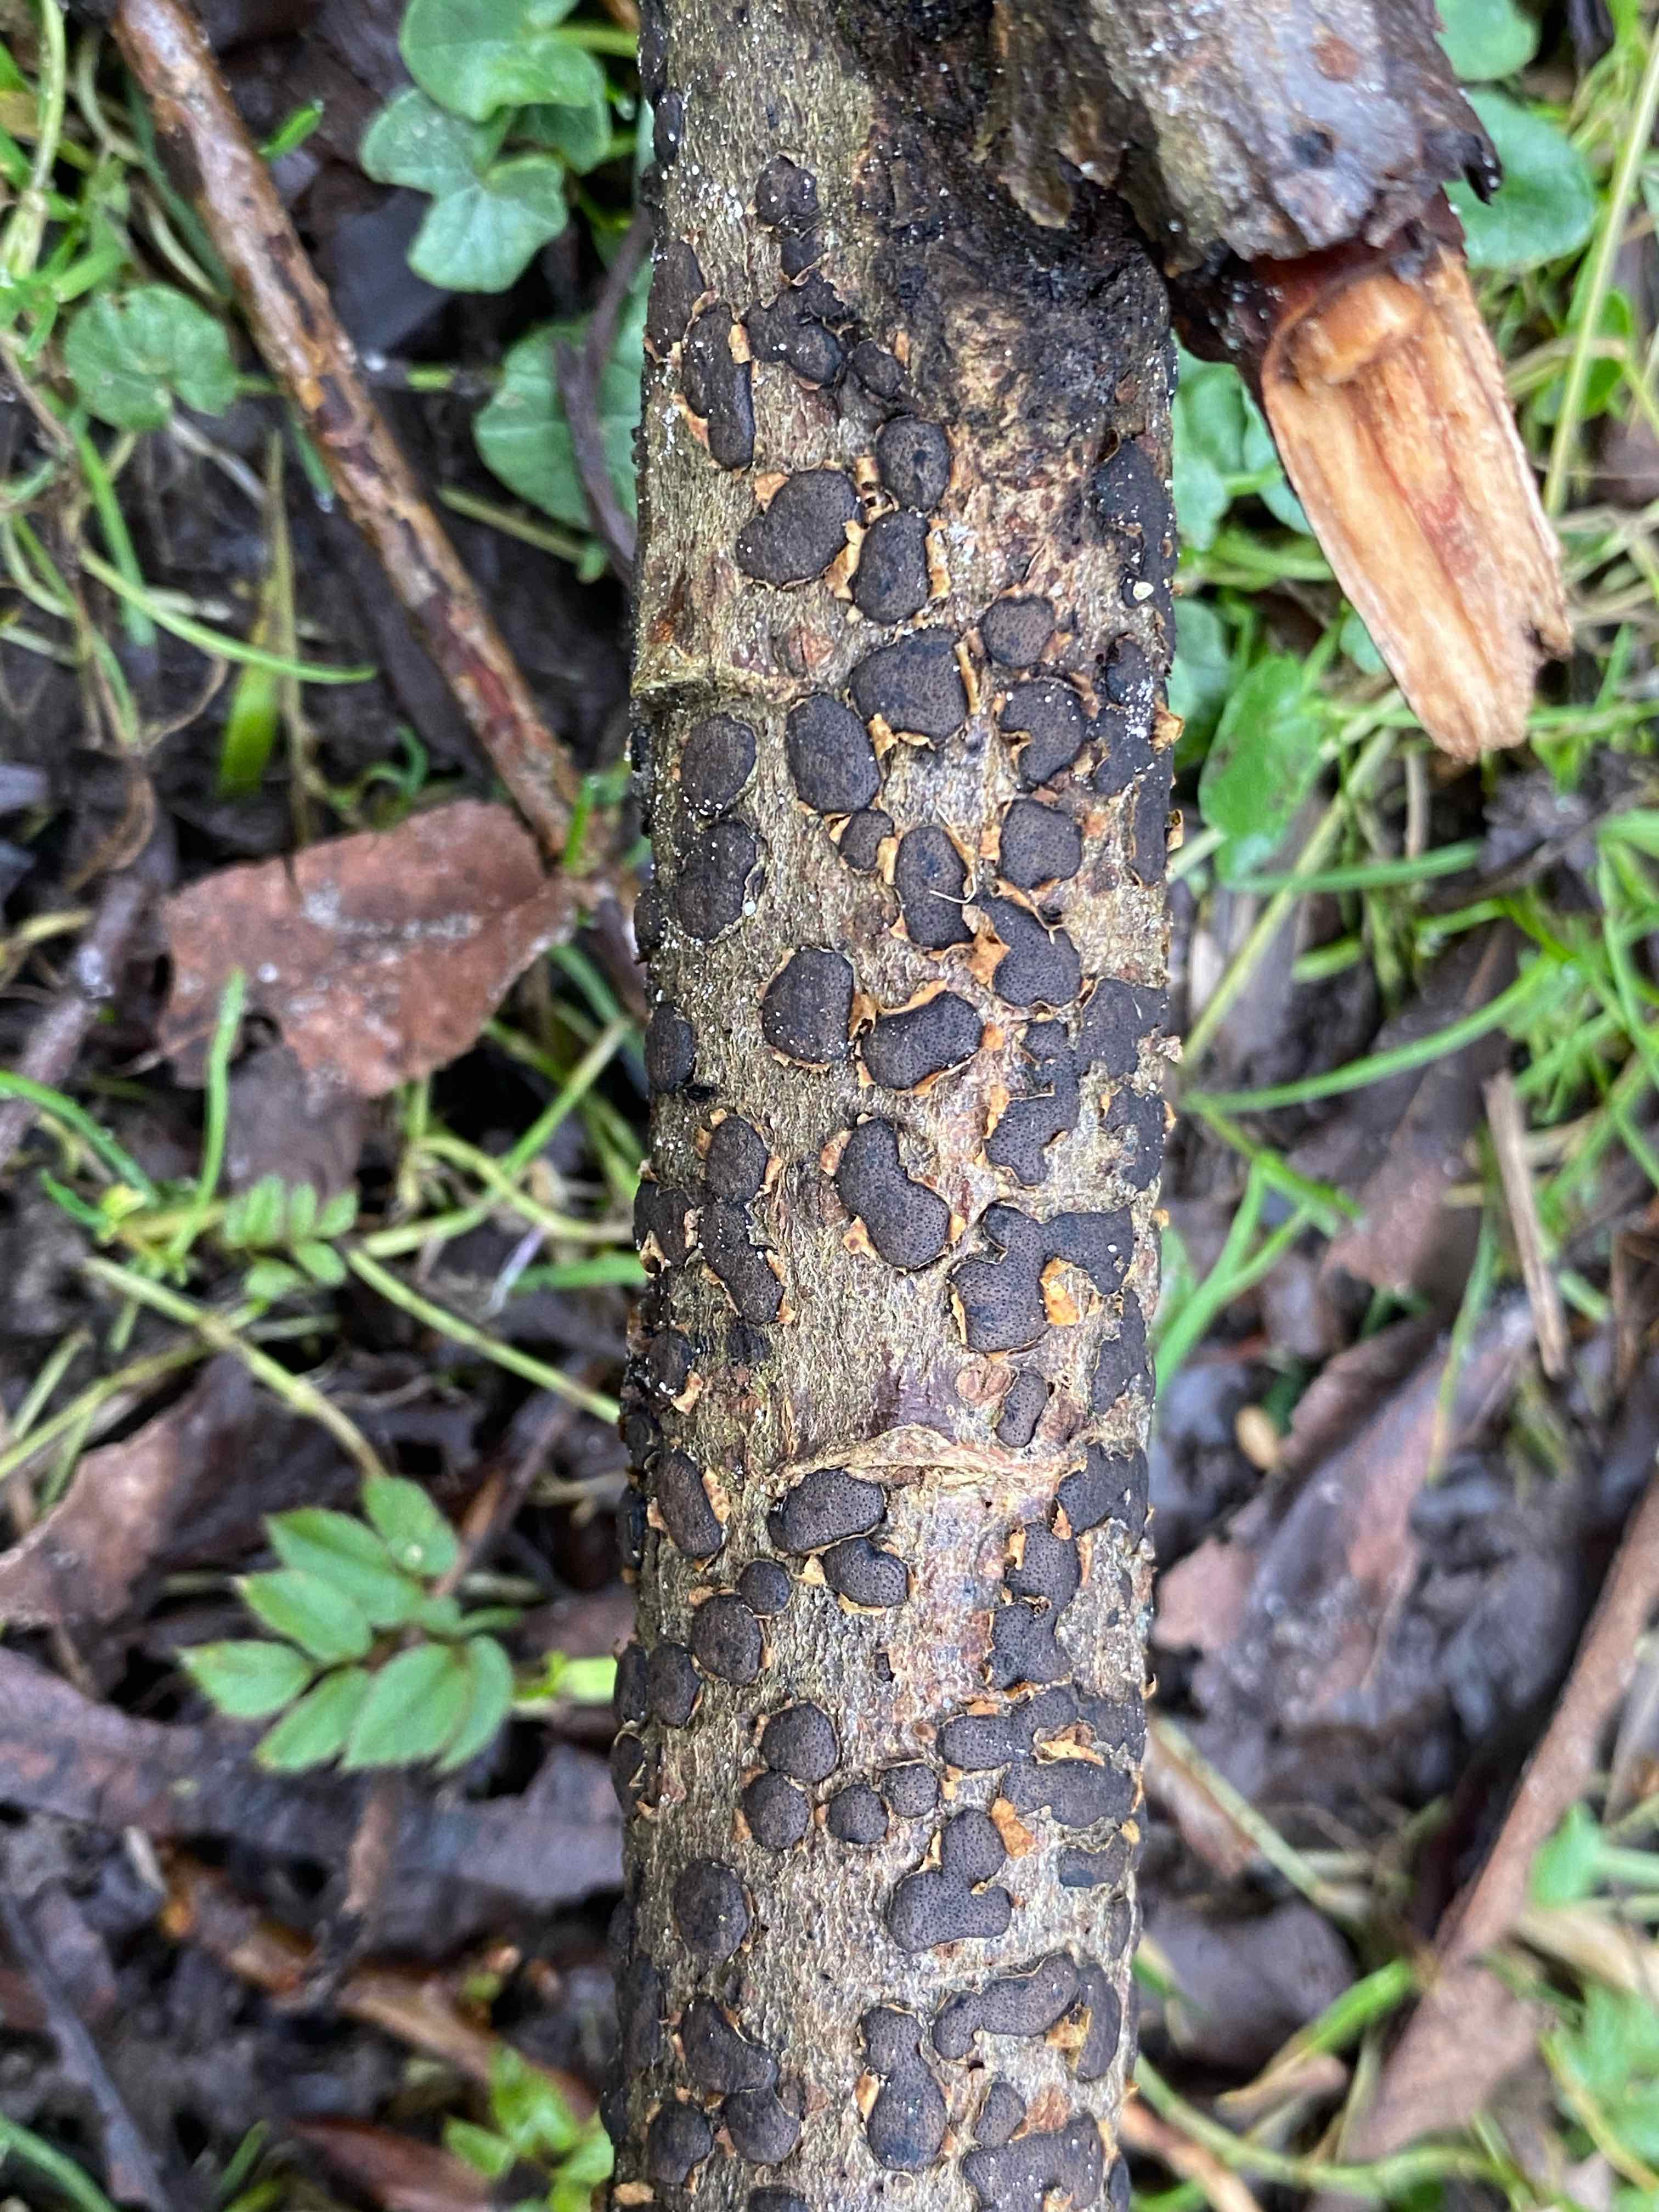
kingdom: Fungi
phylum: Ascomycota
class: Sordariomycetes
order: Xylariales
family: Diatrypaceae
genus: Diatrype
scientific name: Diatrype bullata
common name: pile-kulskorpe
